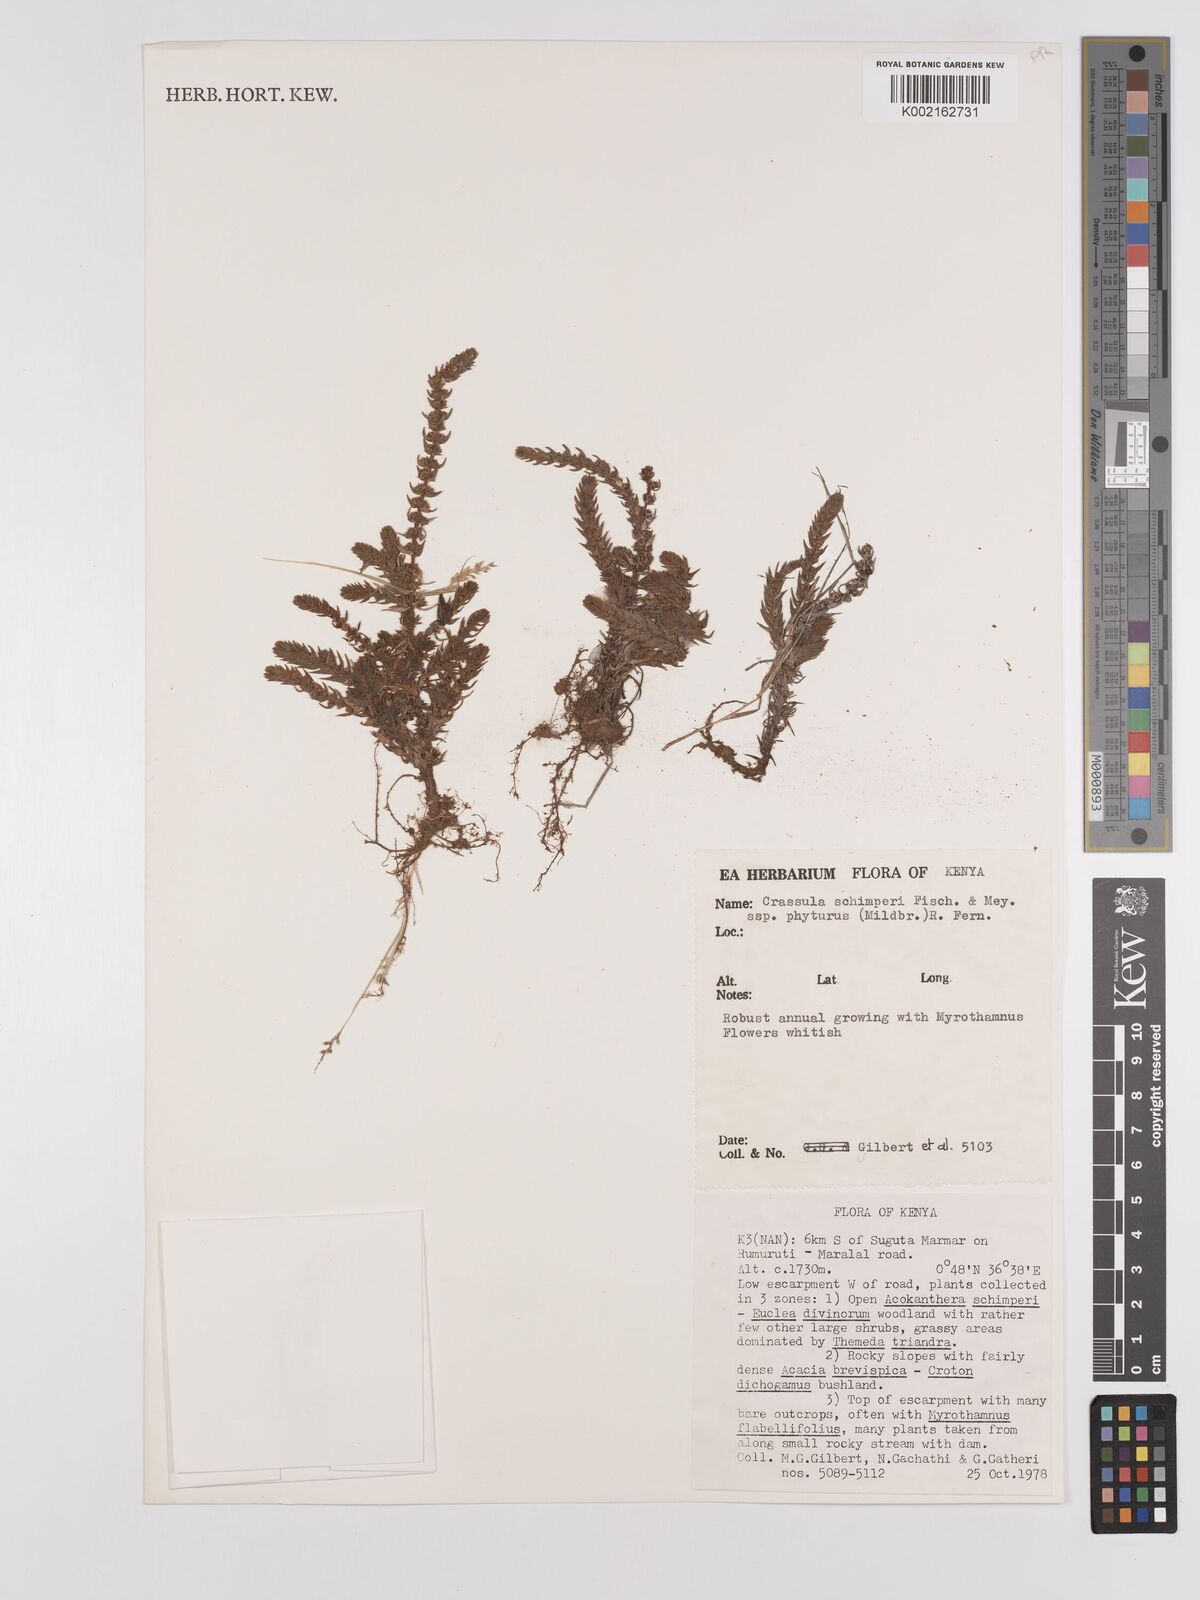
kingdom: Plantae
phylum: Tracheophyta
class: Magnoliopsida
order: Saxifragales
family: Crassulaceae
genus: Crassula
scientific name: Crassula schimperi
